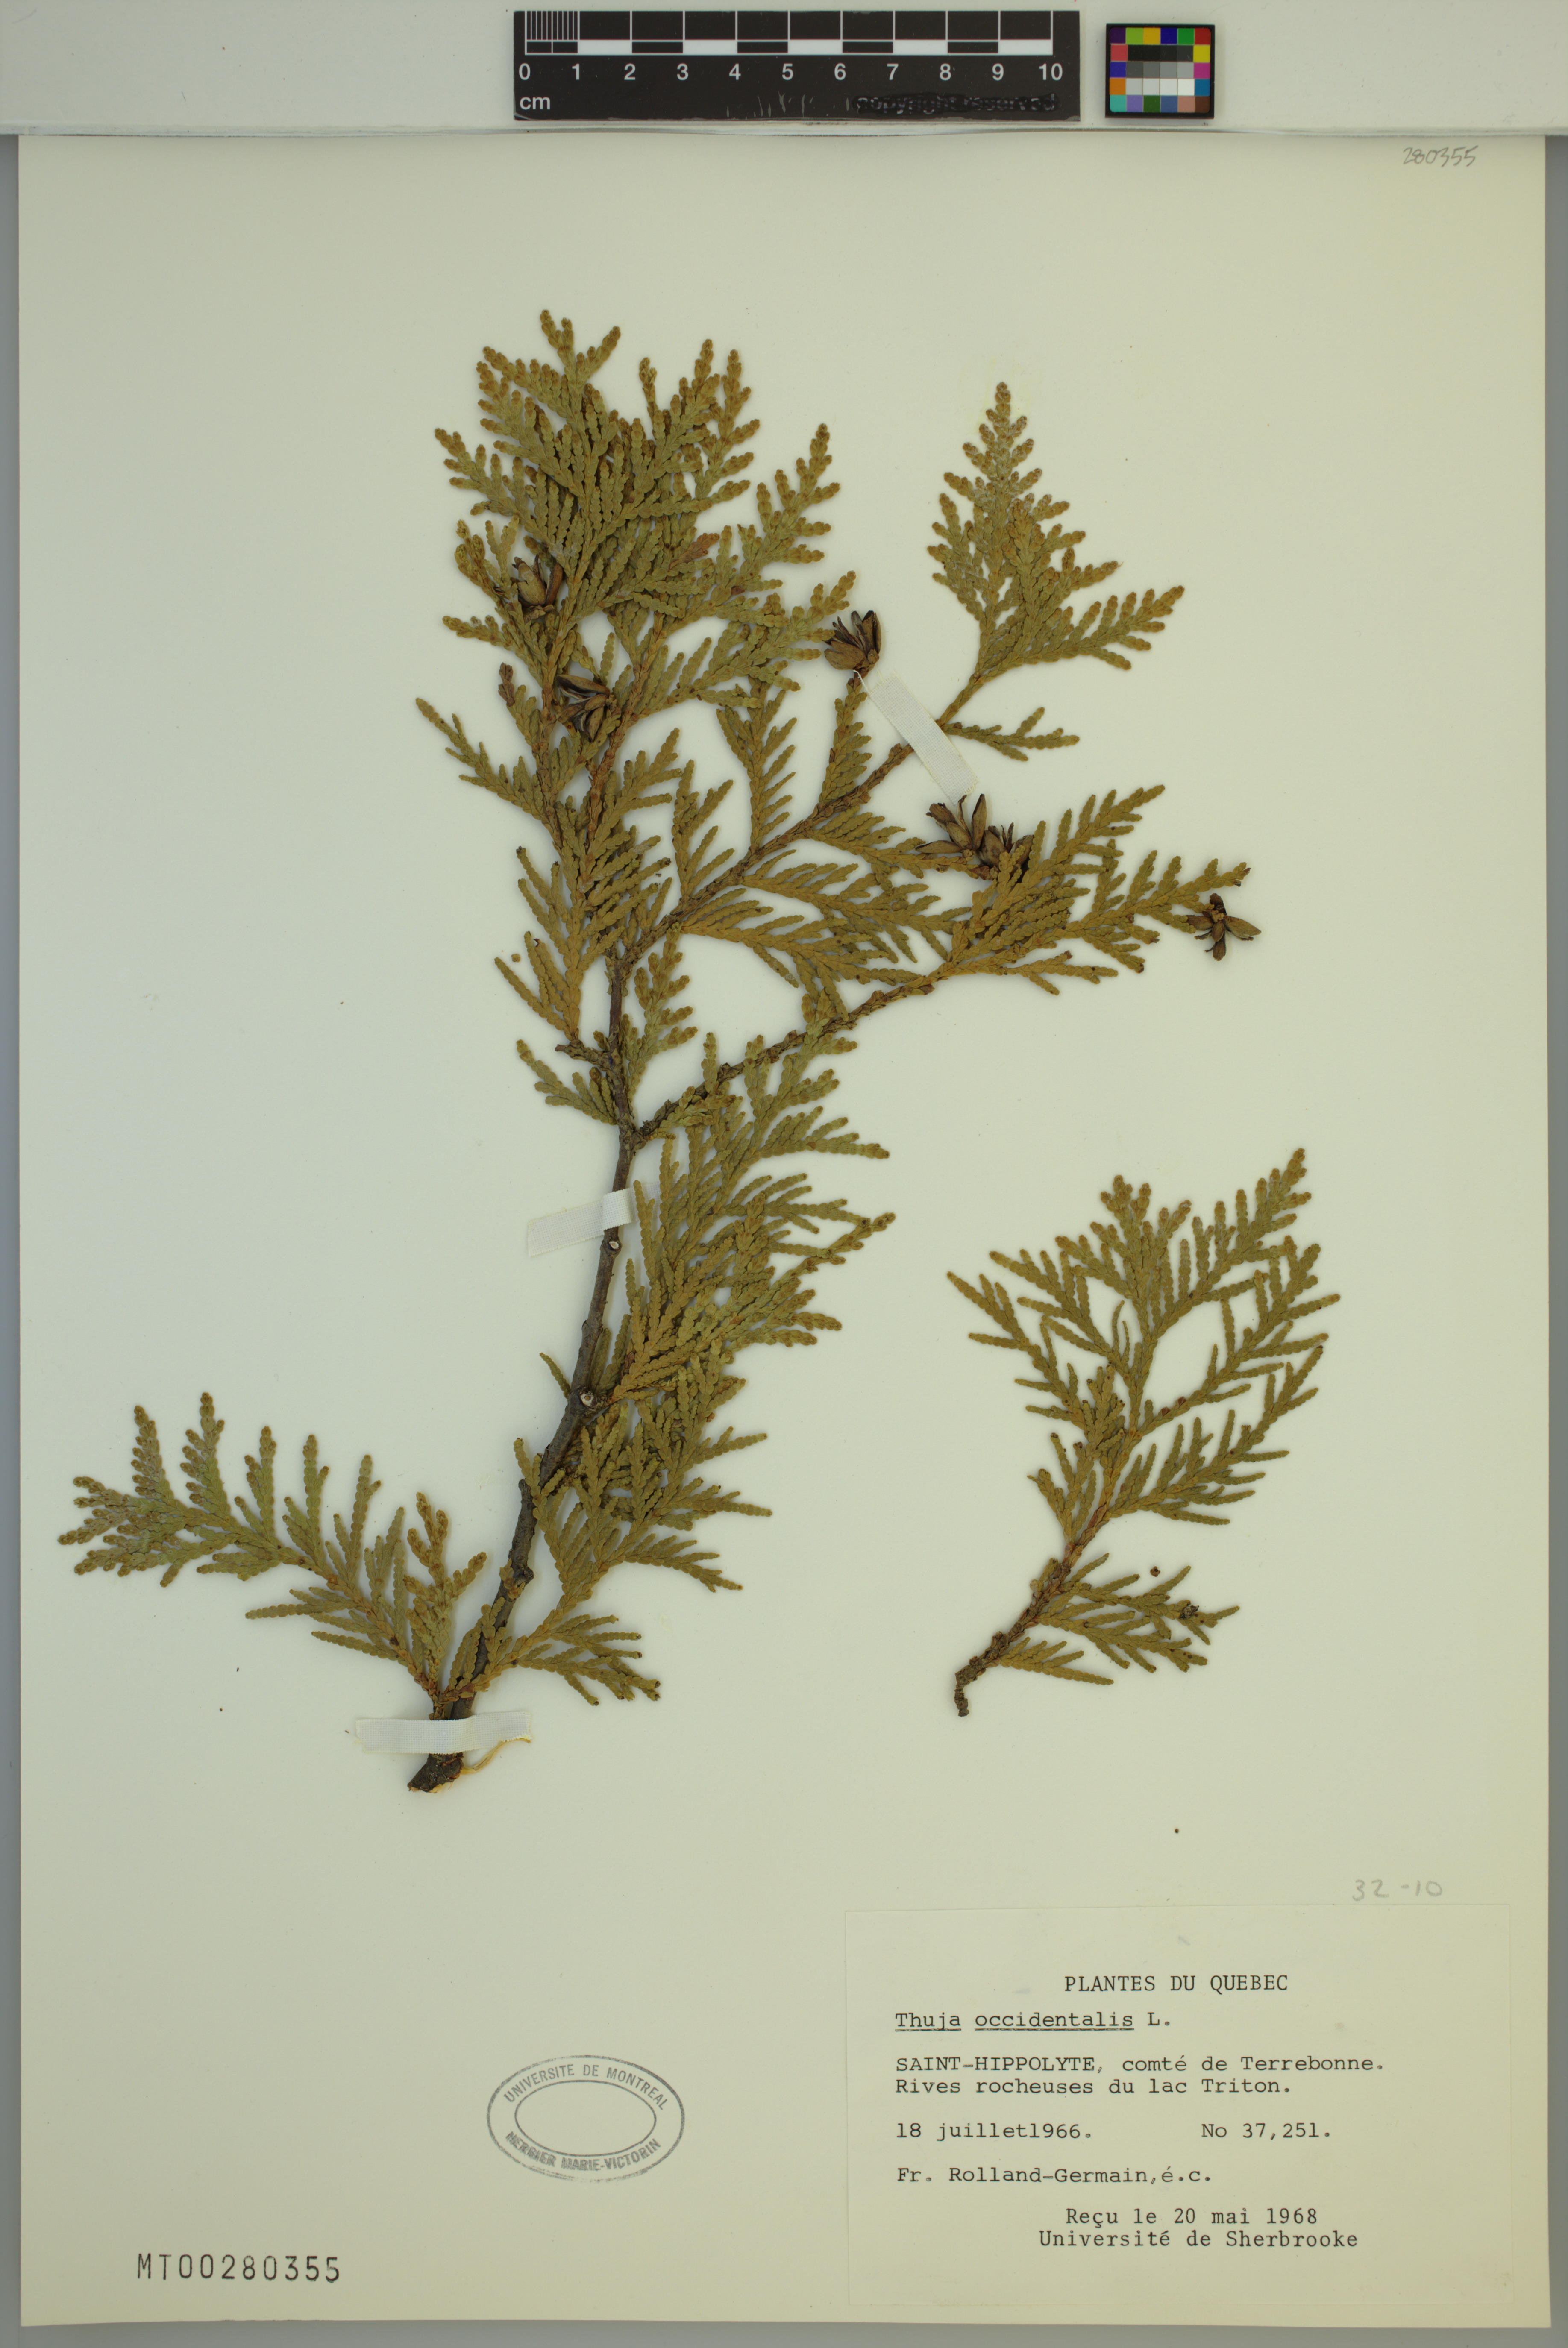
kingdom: Plantae
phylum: Tracheophyta
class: Pinopsida
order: Pinales
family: Cupressaceae
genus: Thuja
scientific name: Thuja occidentalis
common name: Northern white-cedar
